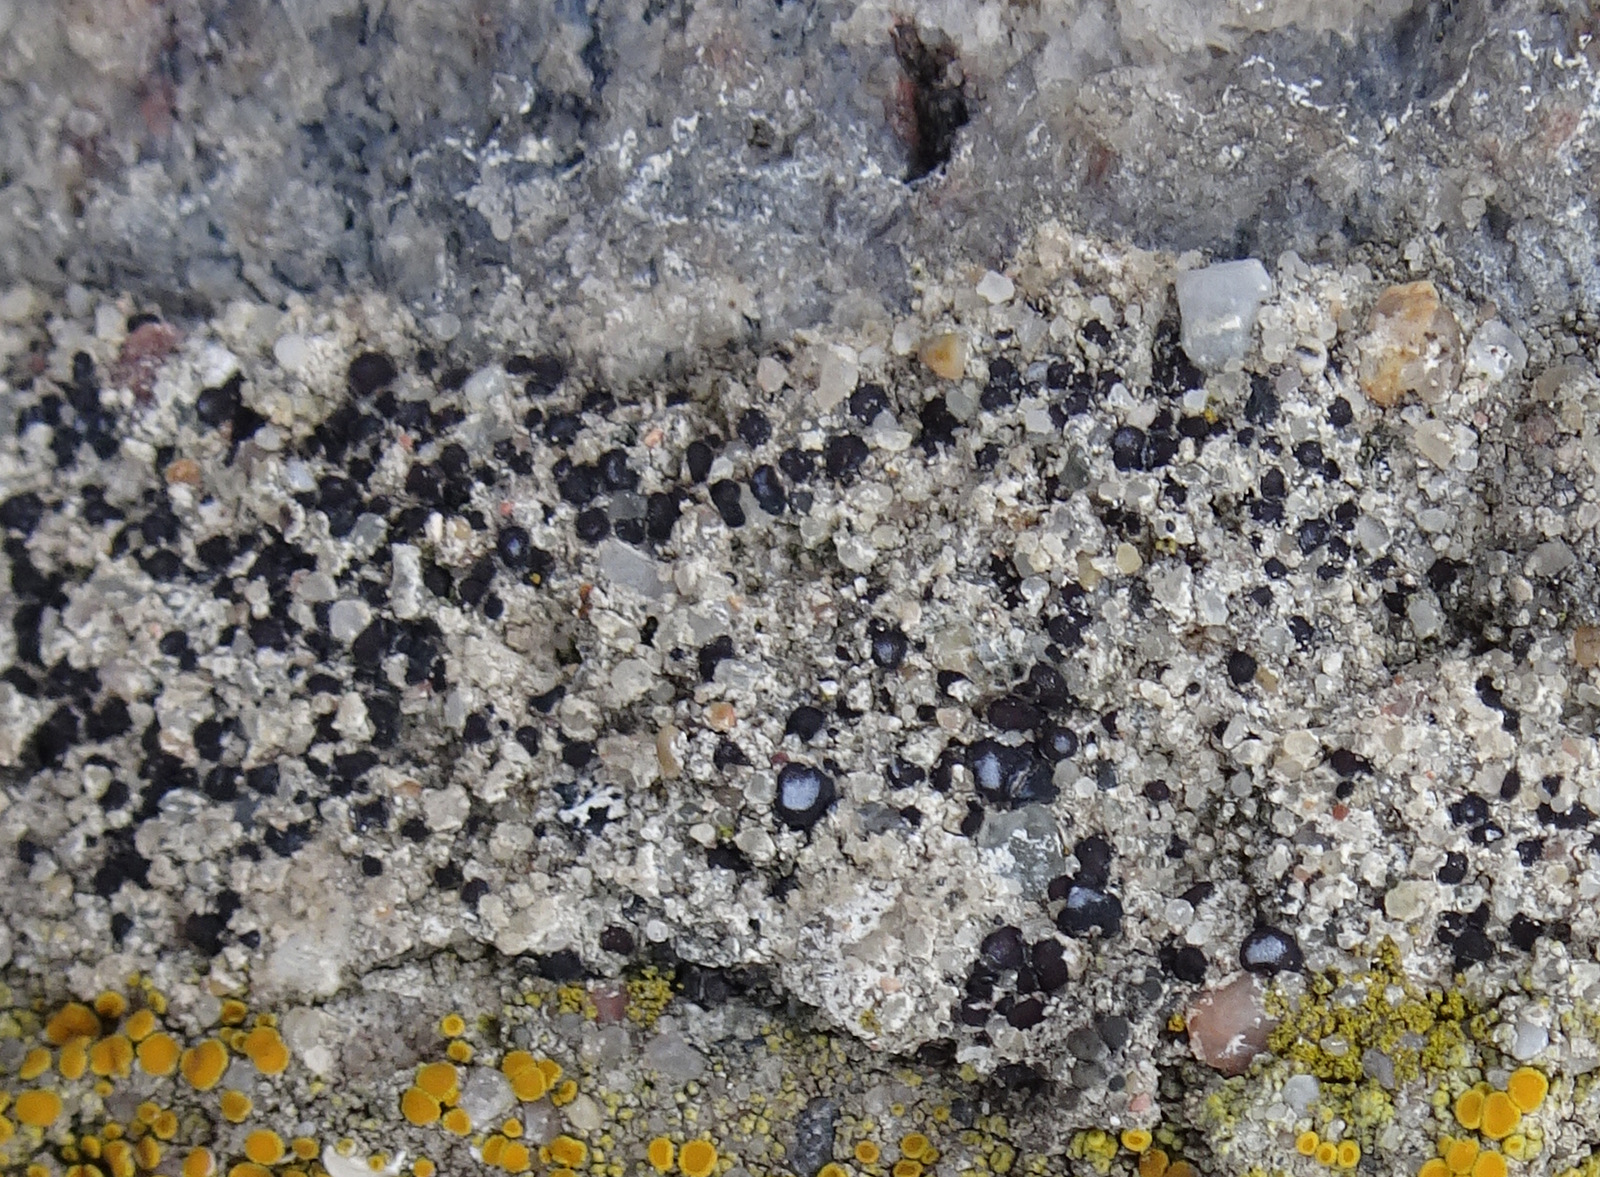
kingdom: Fungi
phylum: Ascomycota
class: Lecanoromycetes
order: Acarosporales
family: Acarosporaceae
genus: Sarcogyne
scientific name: Sarcogyne regularis
